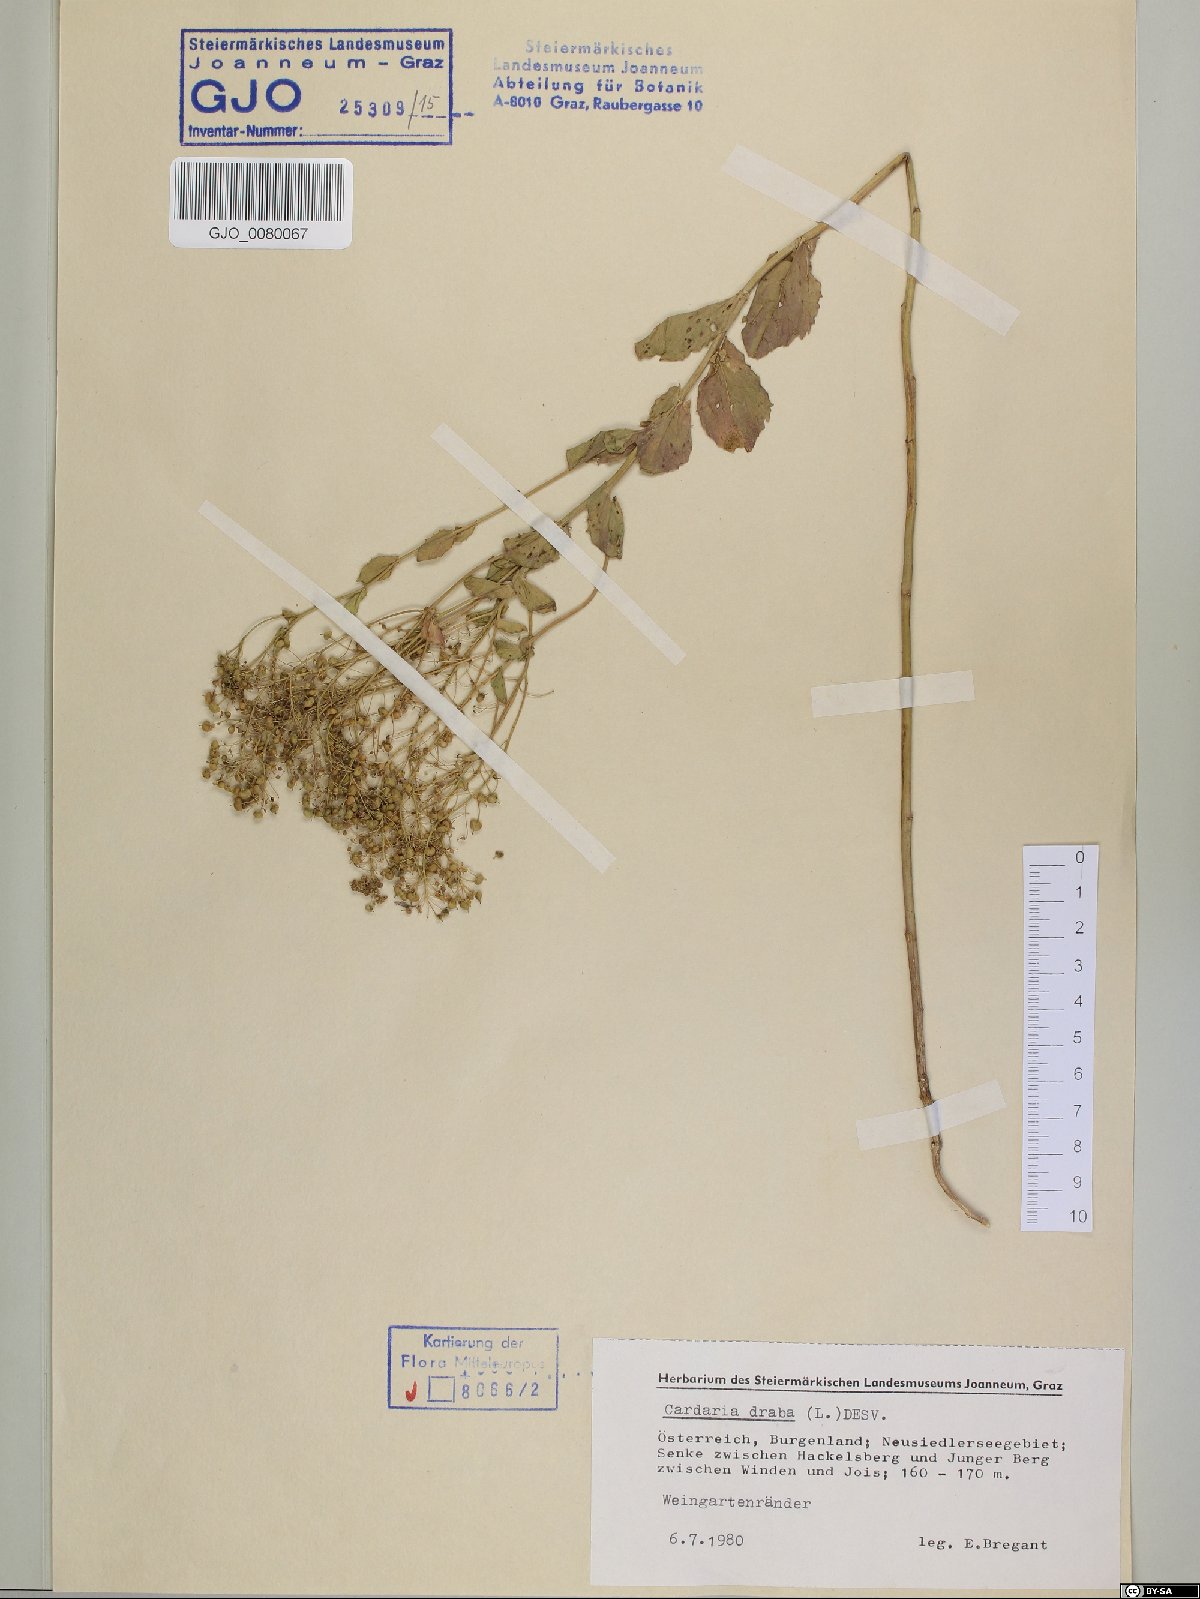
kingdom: Plantae
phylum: Tracheophyta
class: Magnoliopsida
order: Brassicales
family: Brassicaceae
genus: Lepidium
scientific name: Lepidium draba
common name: Hoary cress
